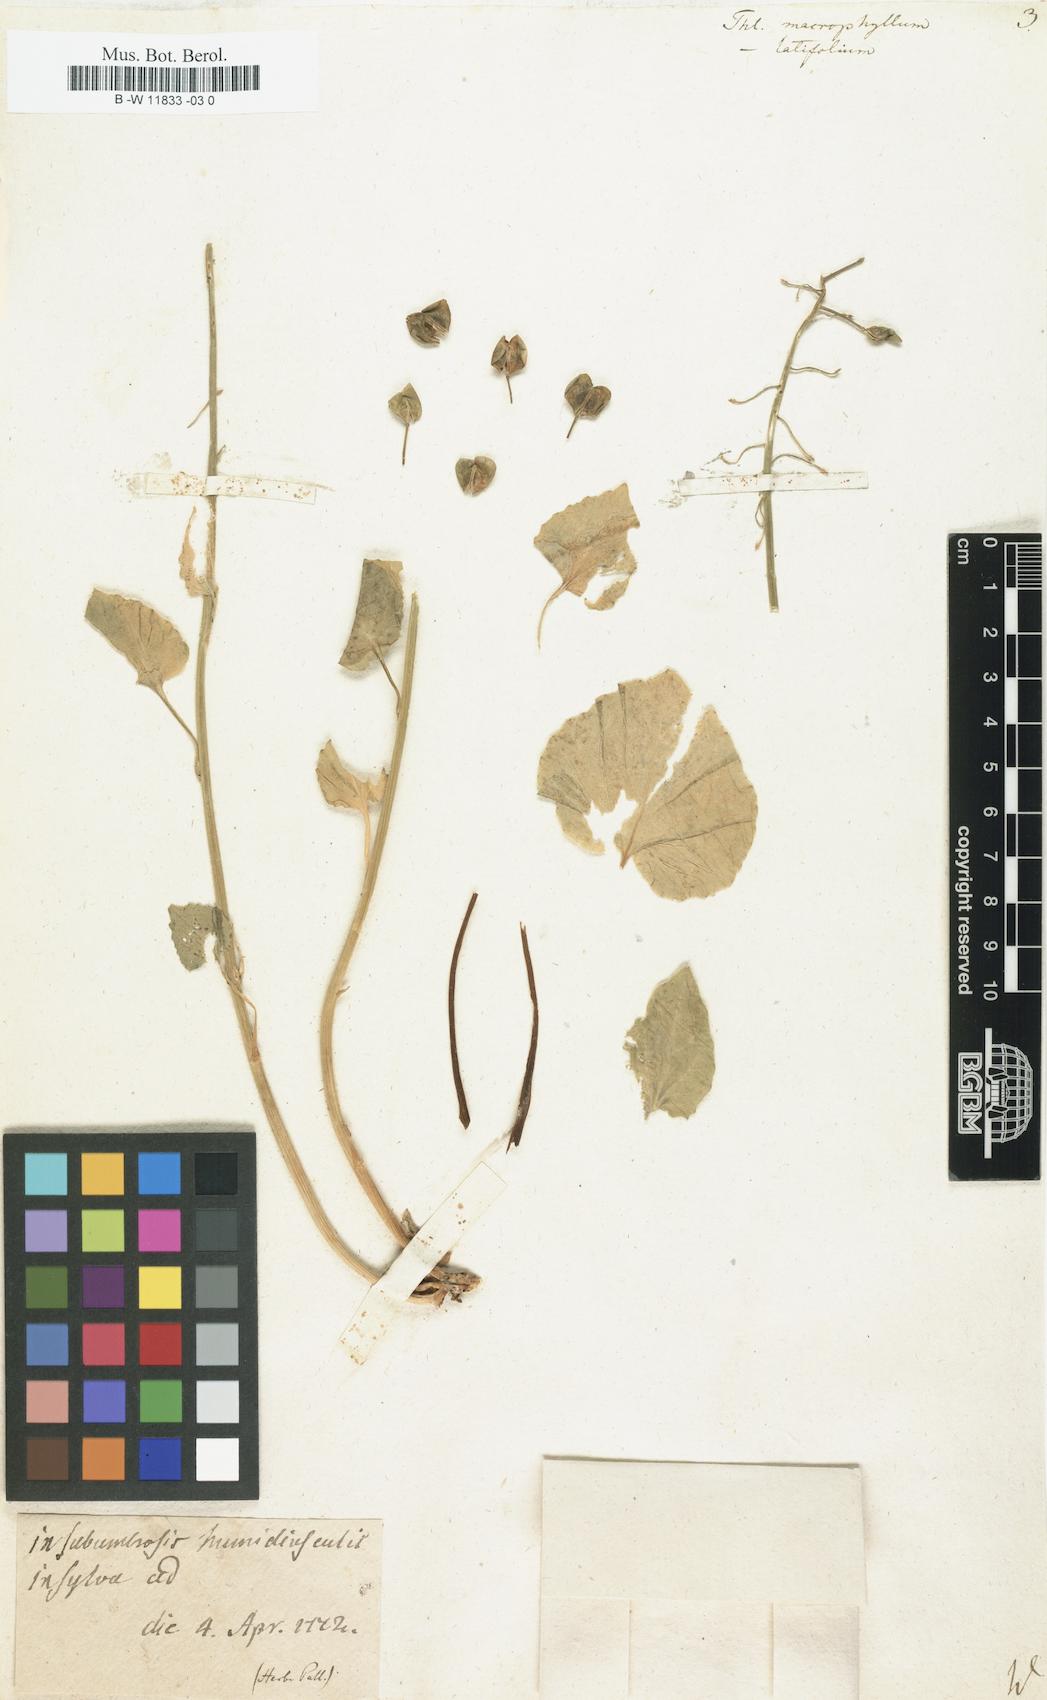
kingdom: Plantae
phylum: Tracheophyta
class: Magnoliopsida
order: Brassicales
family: Brassicaceae
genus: Pachyphragma
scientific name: Pachyphragma macrophyllum
